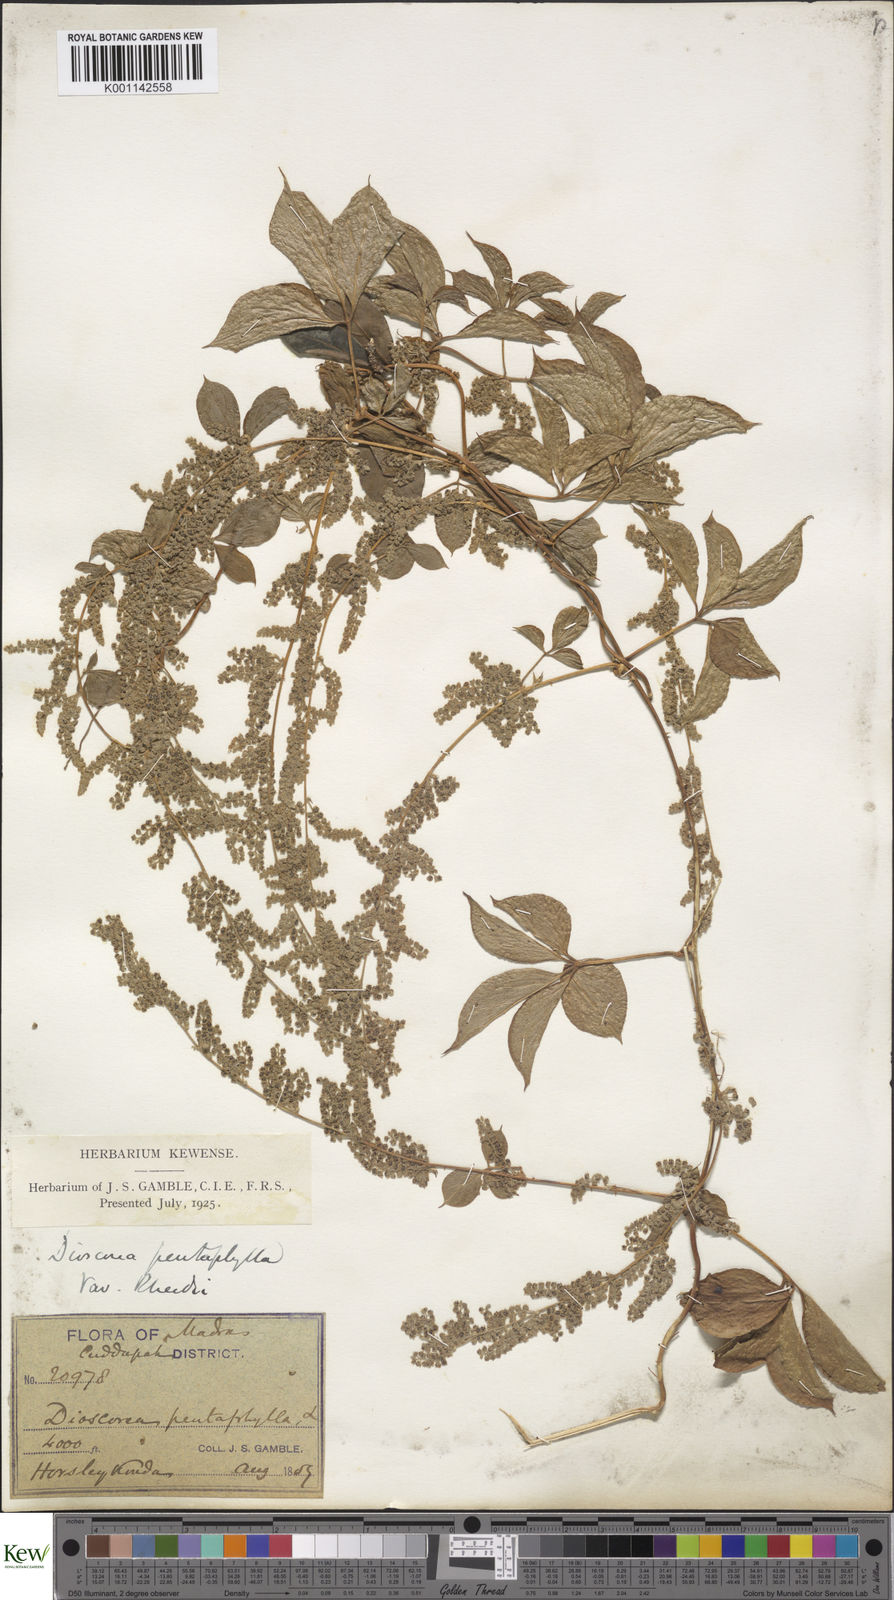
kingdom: Plantae
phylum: Tracheophyta
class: Liliopsida
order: Dioscoreales
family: Dioscoreaceae
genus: Dioscorea
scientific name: Dioscorea pentaphylla
